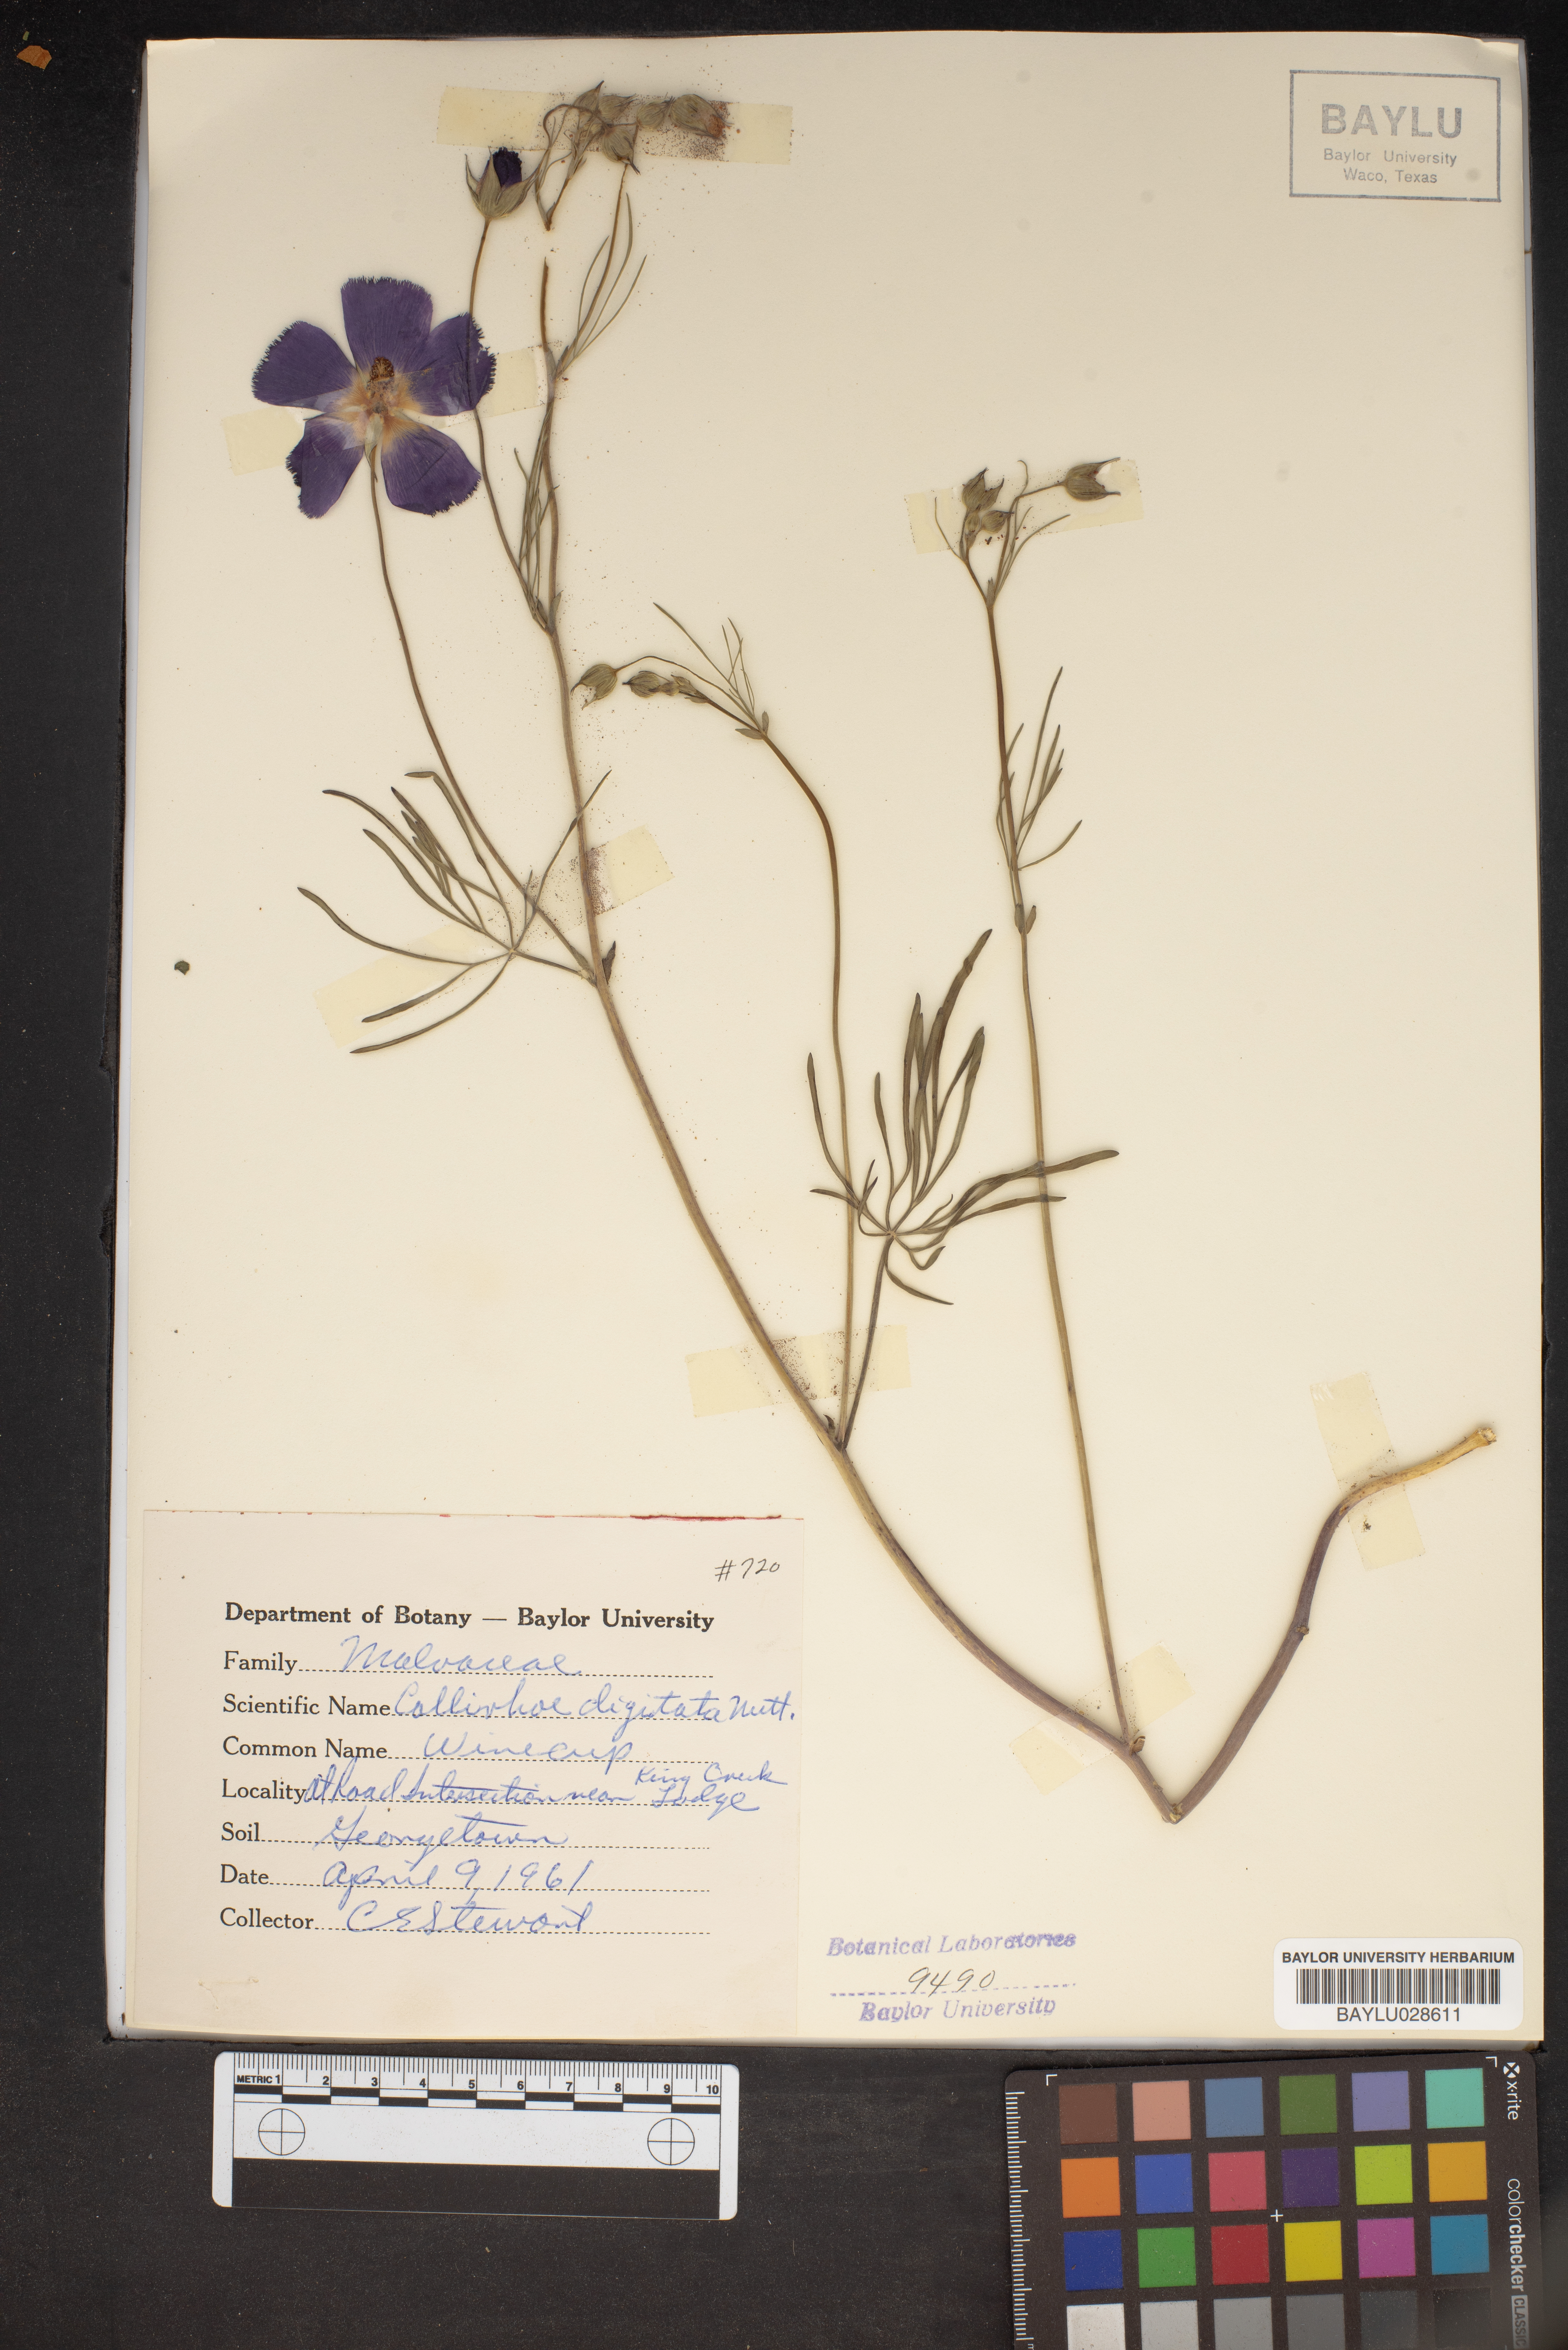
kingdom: Plantae
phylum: Tracheophyta
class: Magnoliopsida
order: Malvales
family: Malvaceae
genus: Callirhoe
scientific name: Callirhoe digitata
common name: Finger poppy-mallow
